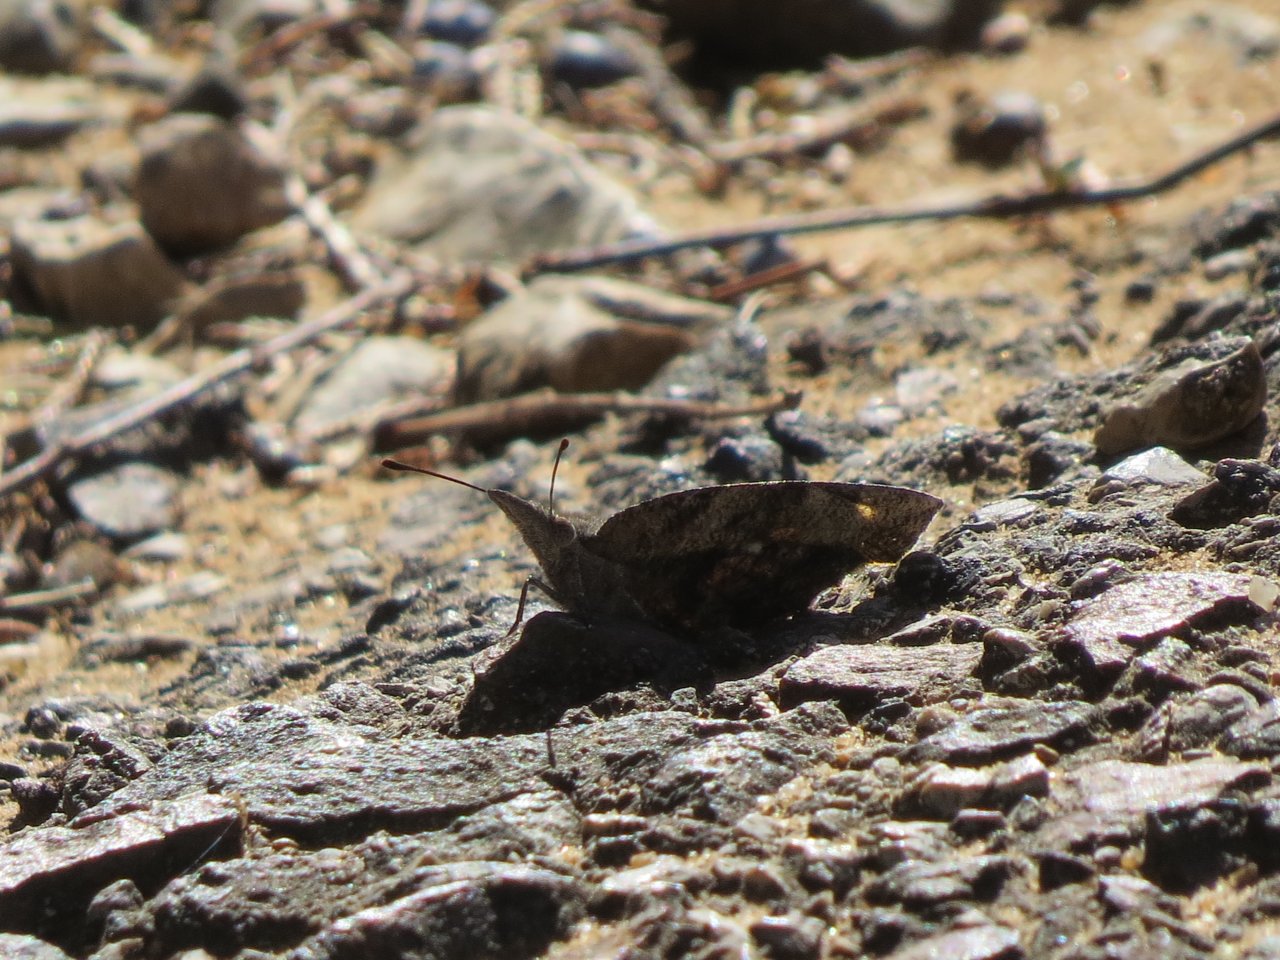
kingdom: Animalia
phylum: Arthropoda
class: Insecta
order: Lepidoptera
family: Nymphalidae
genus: Libytheana
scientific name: Libytheana carinenta
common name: American Snout
